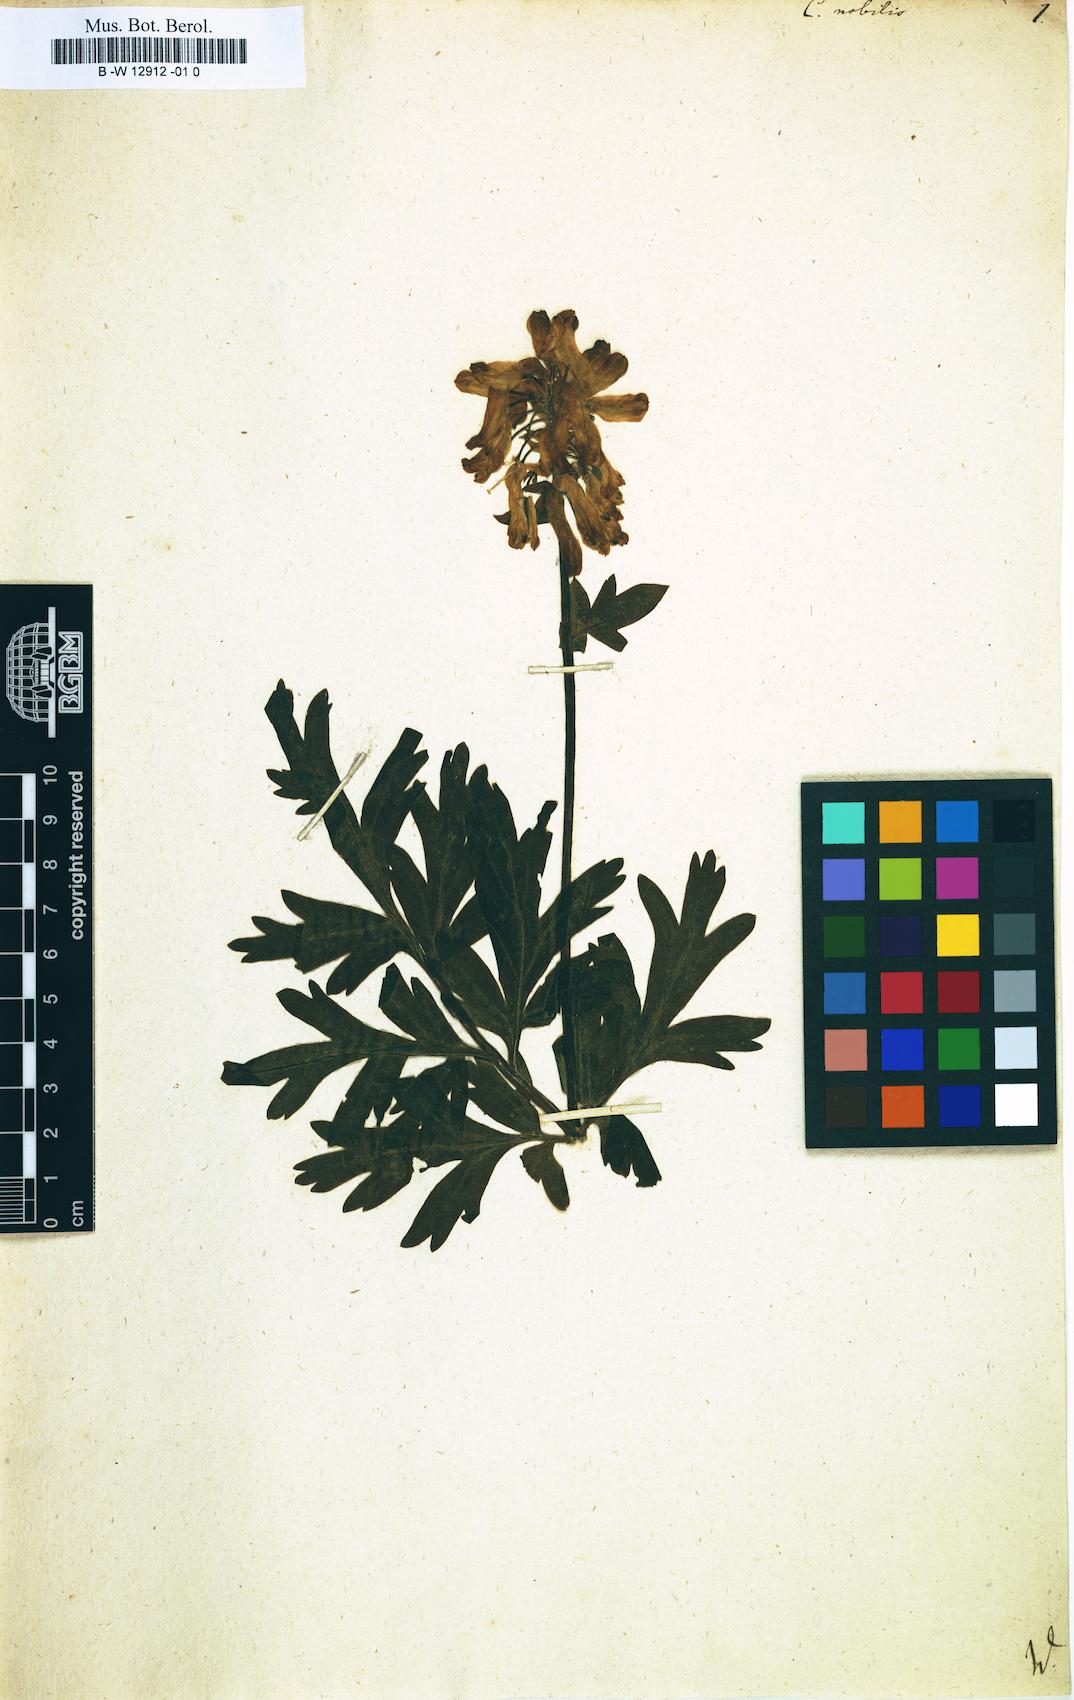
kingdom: Plantae
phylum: Tracheophyta
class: Magnoliopsida
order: Ranunculales
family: Papaveraceae
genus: Corydalis
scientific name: Corydalis nobilis
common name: Siberian corydalis
